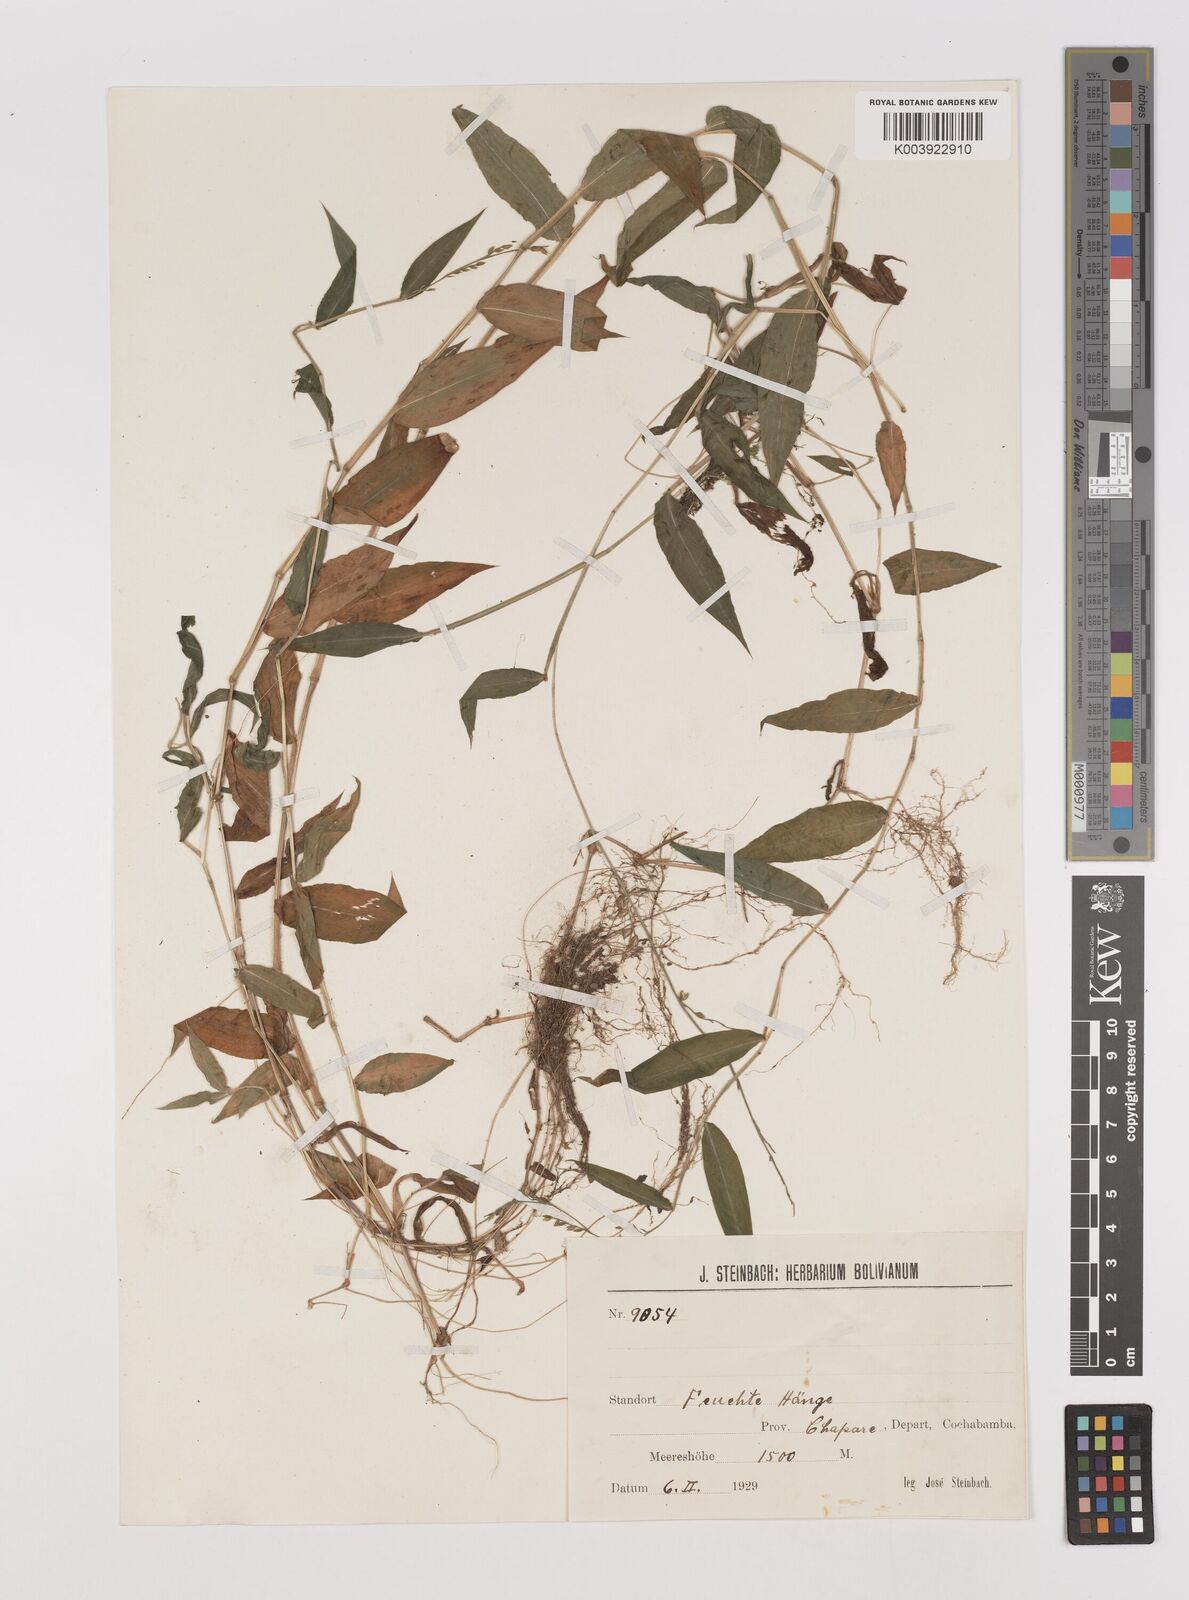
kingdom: Plantae
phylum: Tracheophyta
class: Liliopsida
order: Poales
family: Poaceae
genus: Pseudechinolaena
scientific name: Pseudechinolaena polystachya
